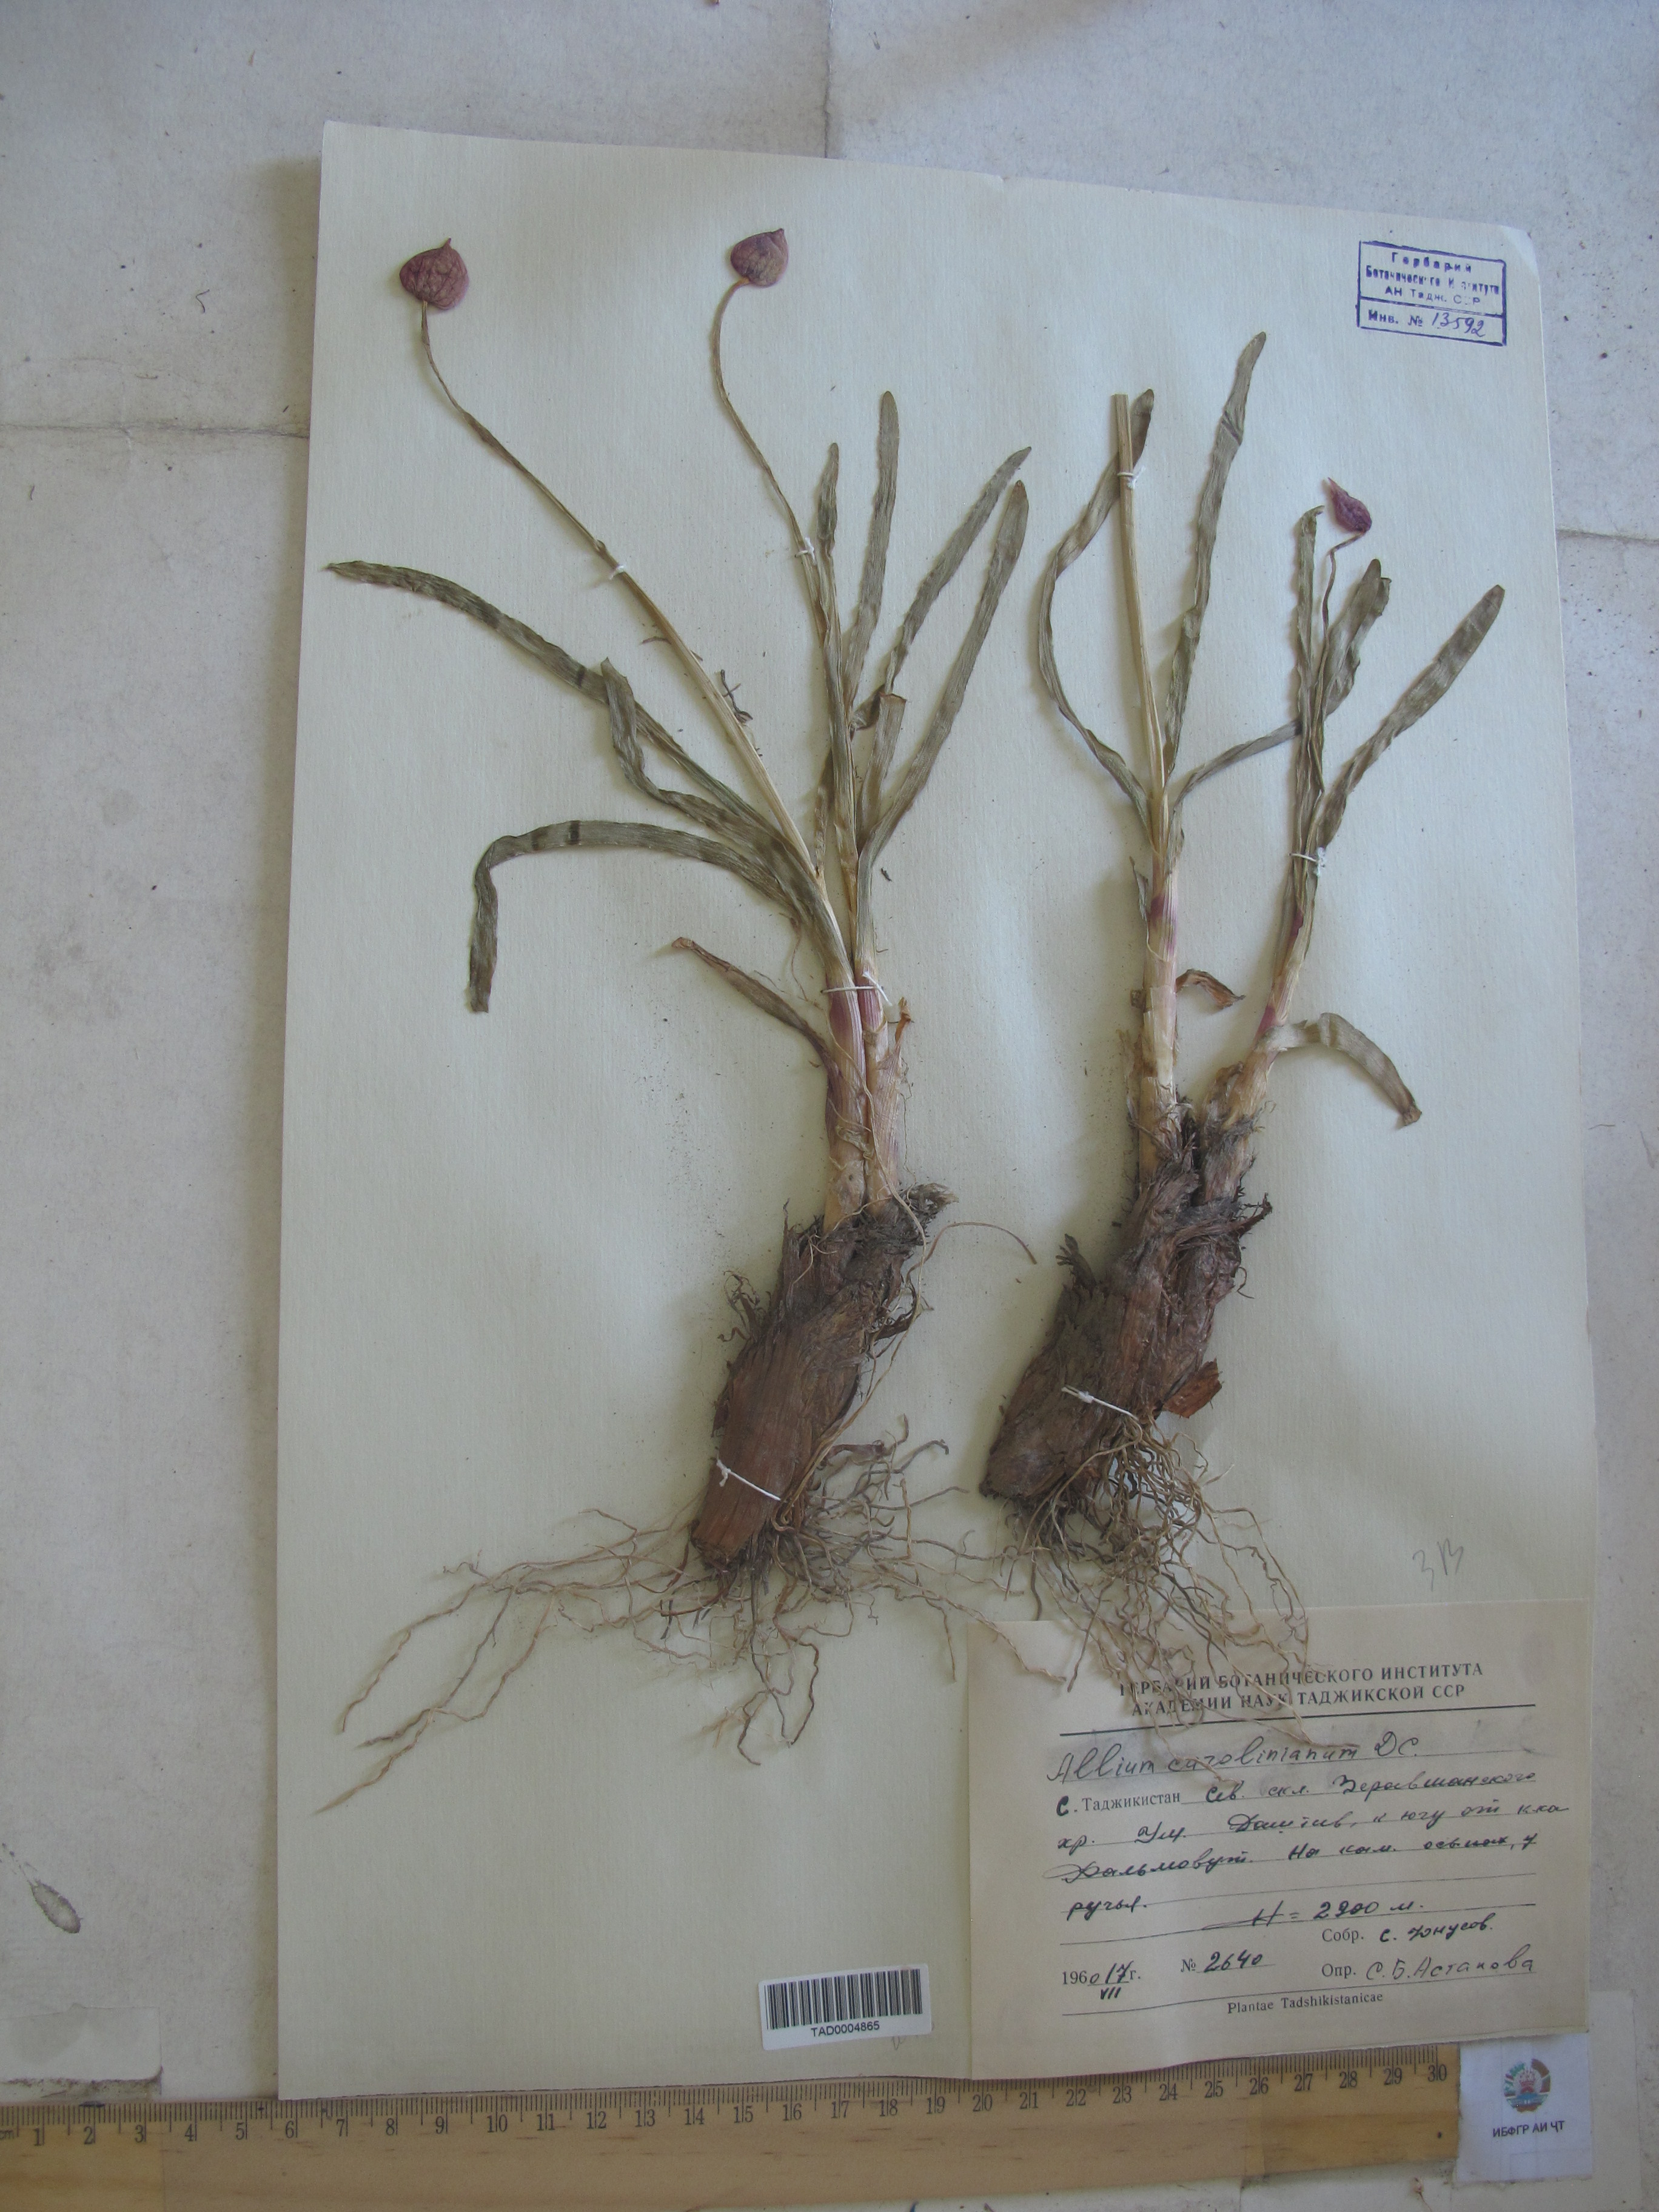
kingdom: Plantae
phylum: Tracheophyta
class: Liliopsida
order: Asparagales
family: Amaryllidaceae
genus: Allium
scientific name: Allium carolinianum
